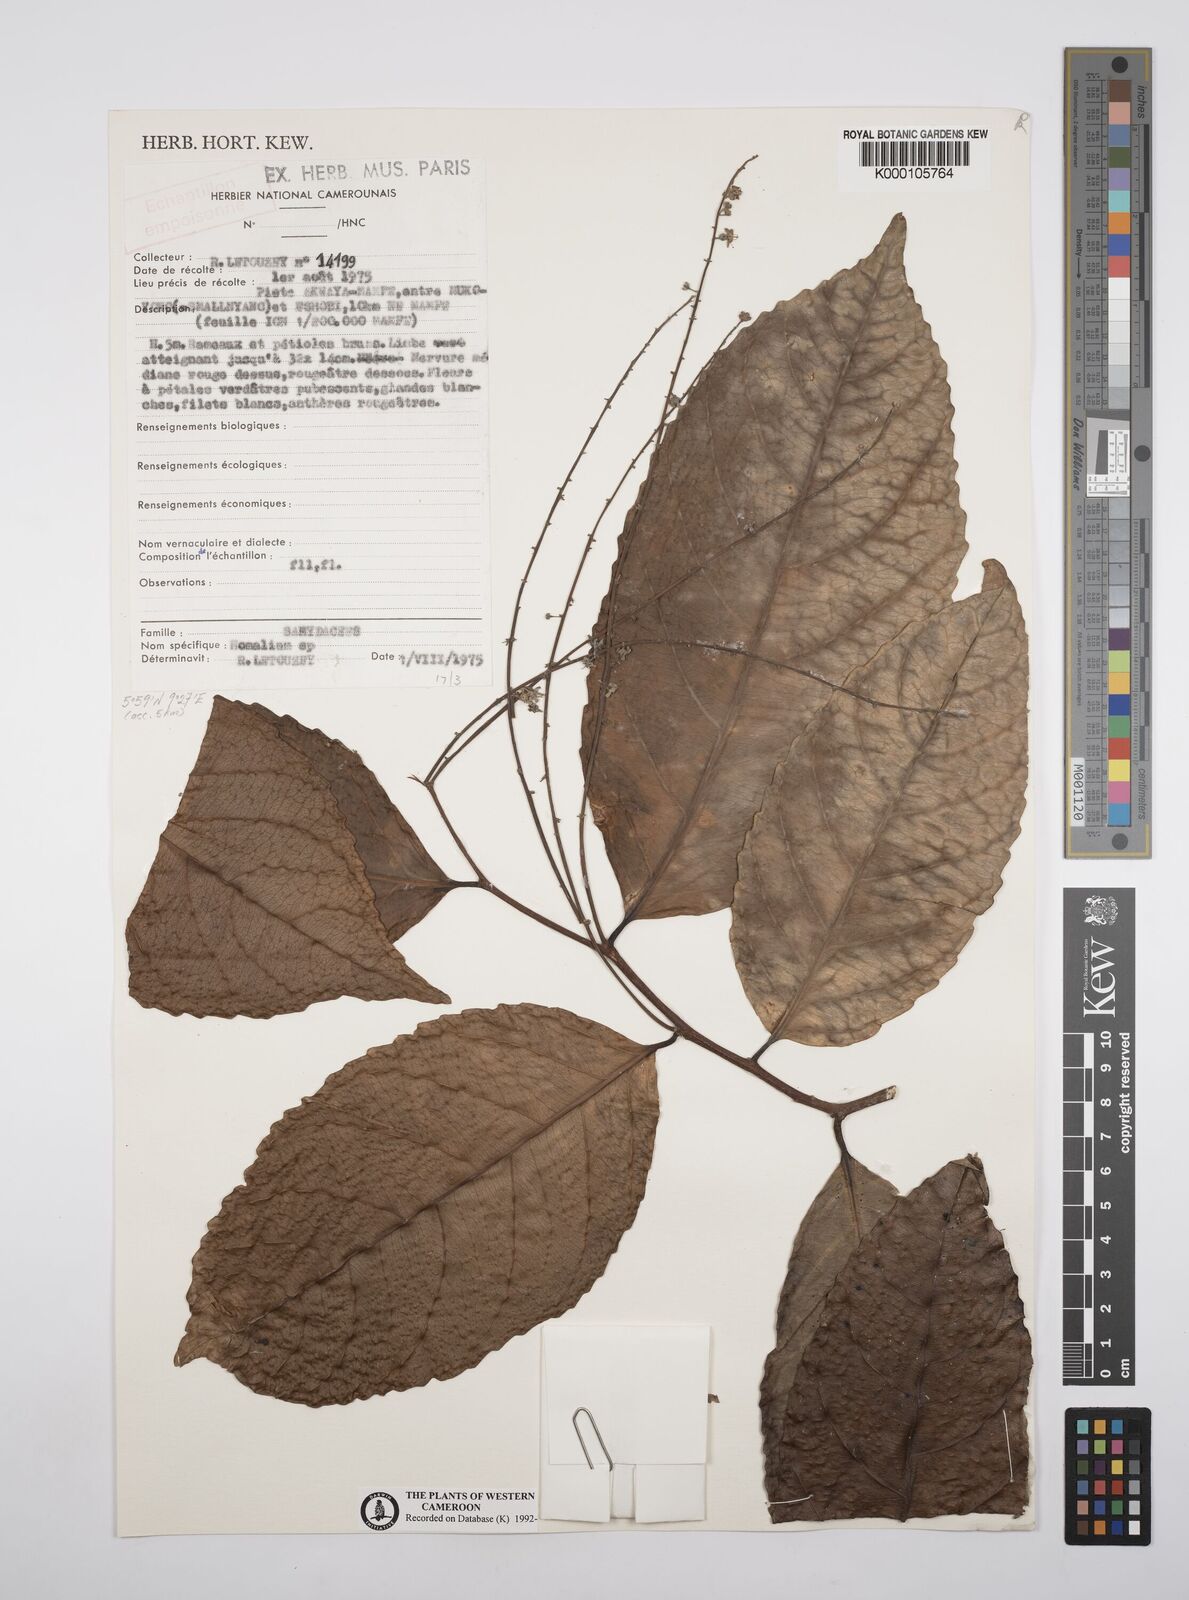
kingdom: Plantae
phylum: Tracheophyta
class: Magnoliopsida
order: Malpighiales
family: Salicaceae
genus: Homalium
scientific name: Homalium
